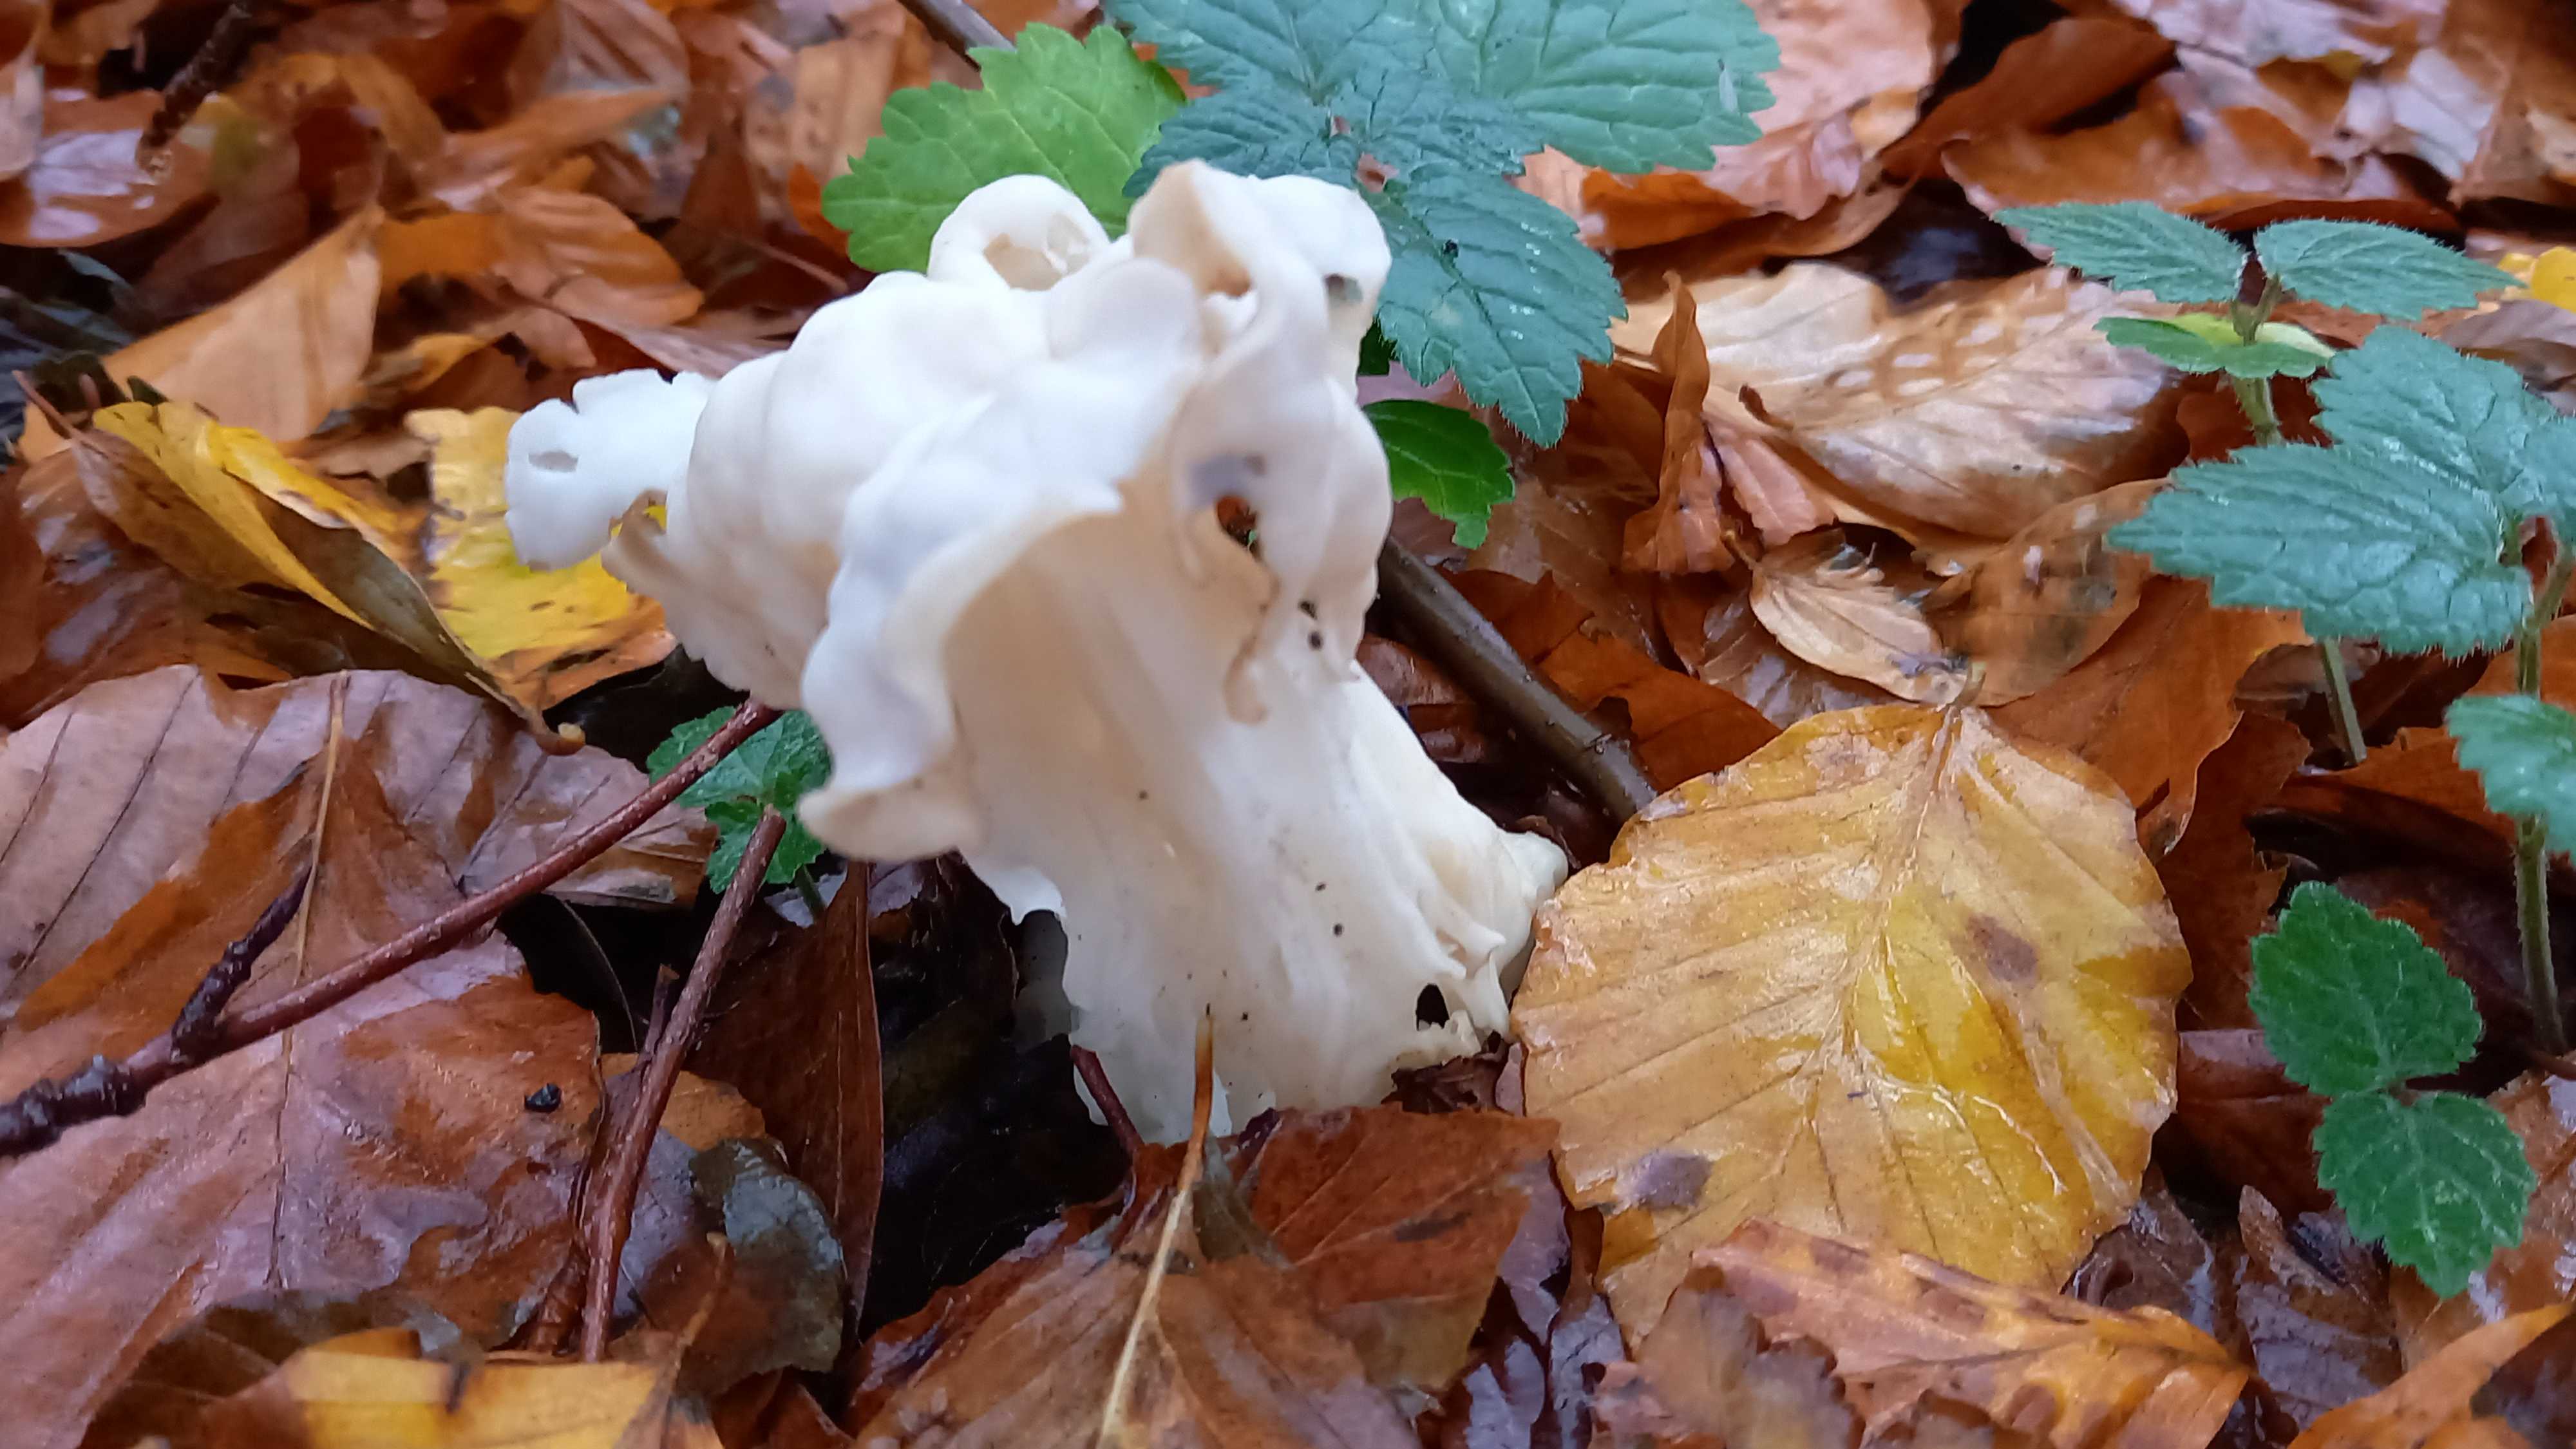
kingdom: Fungi
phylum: Ascomycota
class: Pezizomycetes
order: Pezizales
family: Helvellaceae
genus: Helvella
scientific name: Helvella crispa
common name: kruset foldhat
